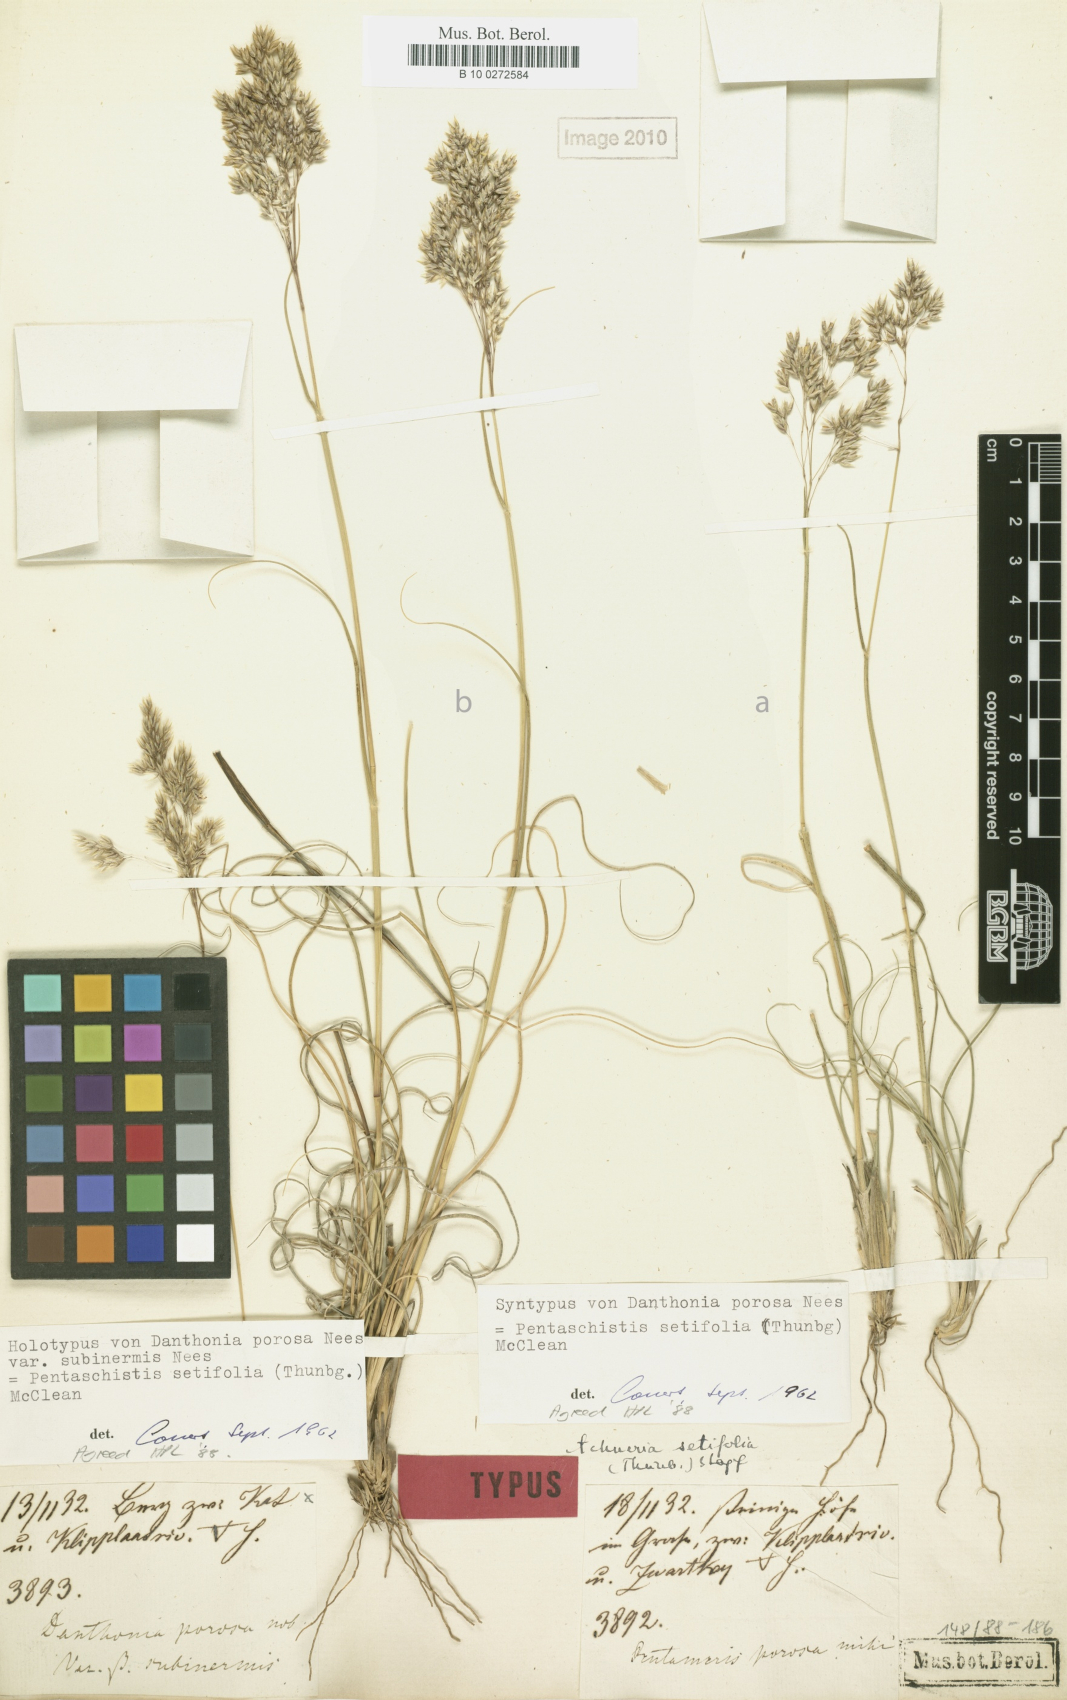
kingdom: Plantae
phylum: Tracheophyta
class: Liliopsida
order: Poales
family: Poaceae
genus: Pentameris
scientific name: Pentameris setifolia
